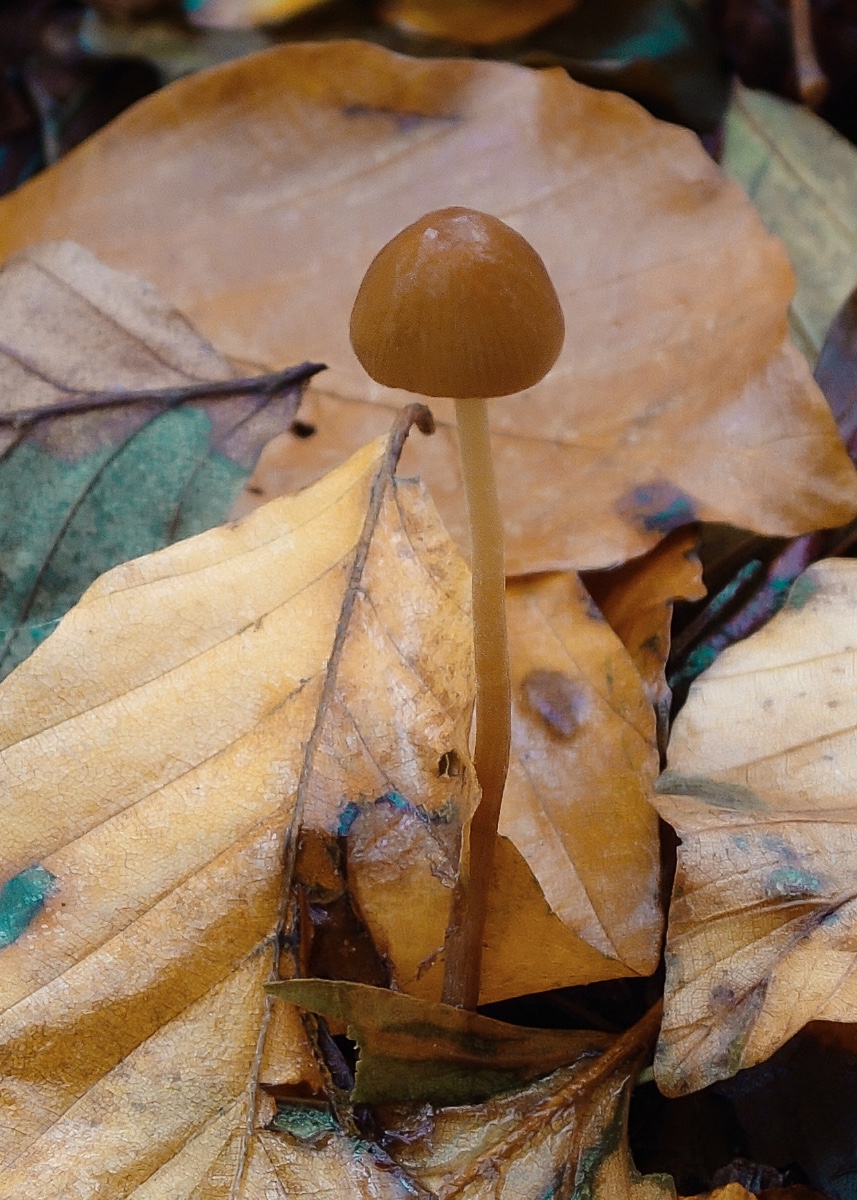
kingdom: Fungi
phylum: Basidiomycota
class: Agaricomycetes
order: Agaricales
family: Bolbitiaceae
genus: Conocybe
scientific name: Conocybe
